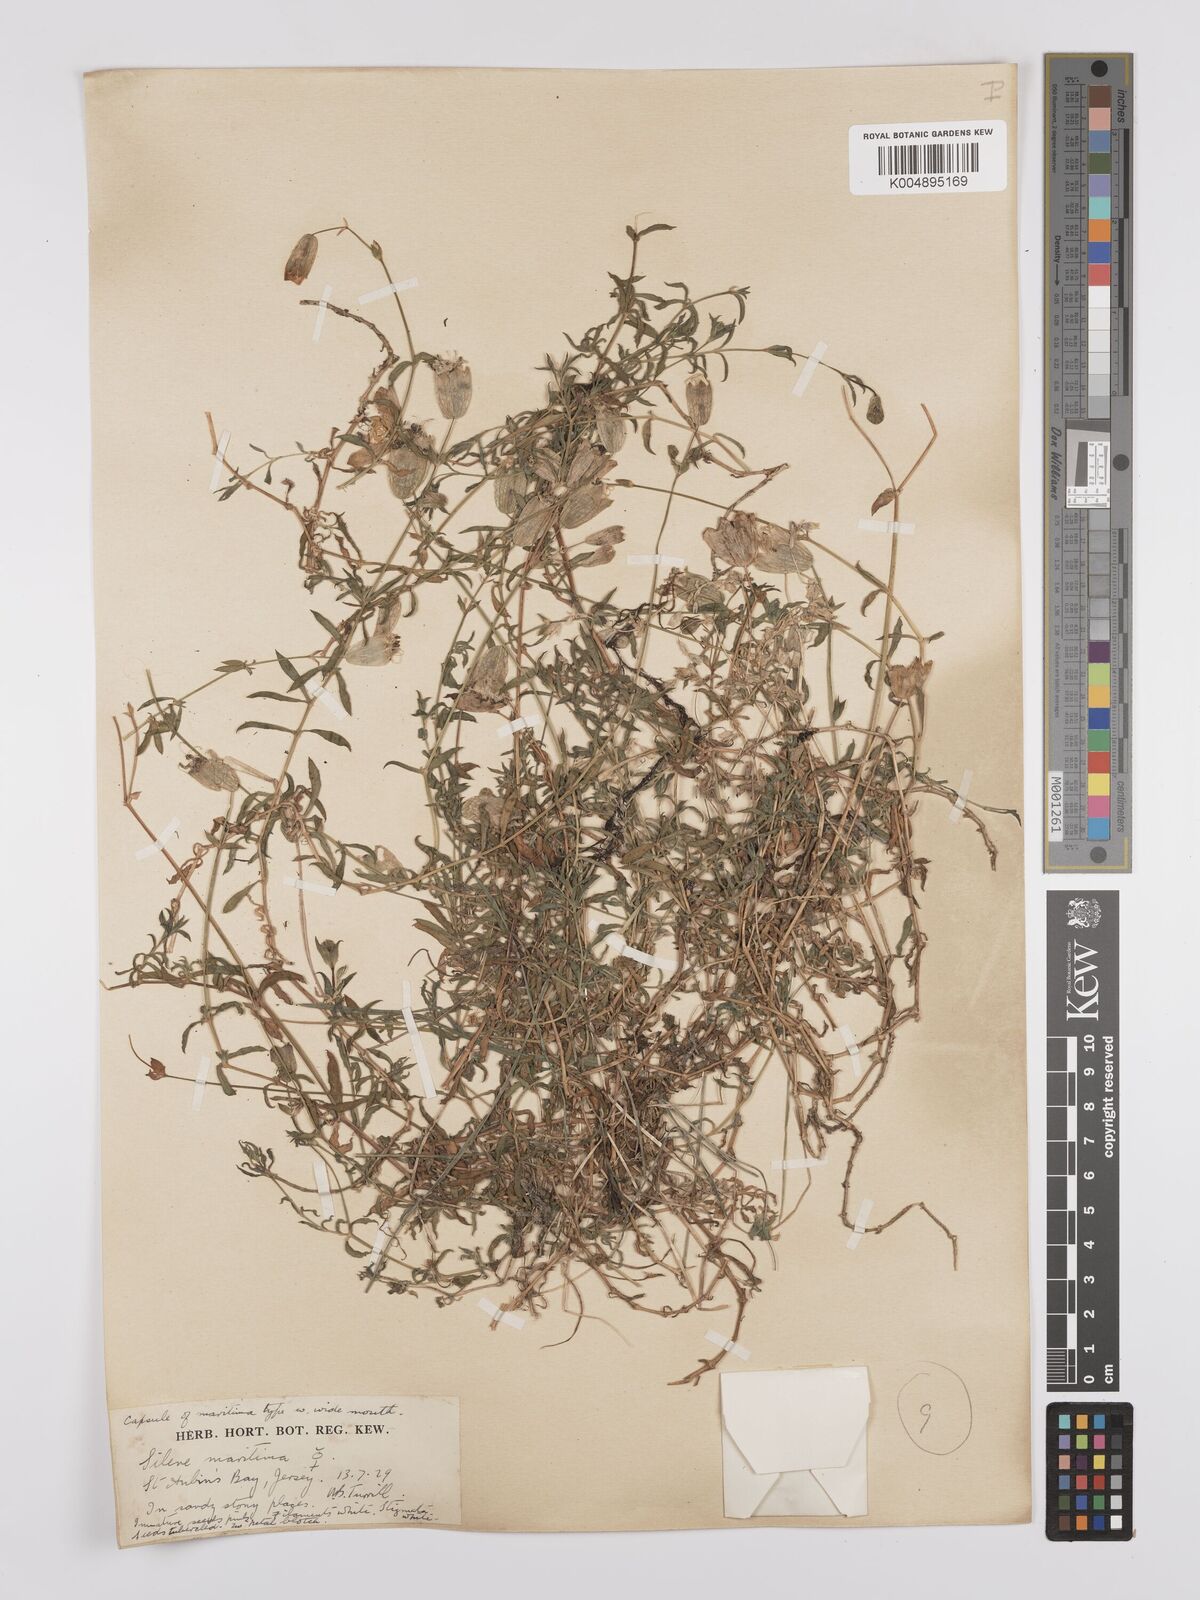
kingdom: Plantae
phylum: Tracheophyta
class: Magnoliopsida
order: Caryophyllales
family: Caryophyllaceae
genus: Silene
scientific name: Silene uniflora
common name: Sea campion
